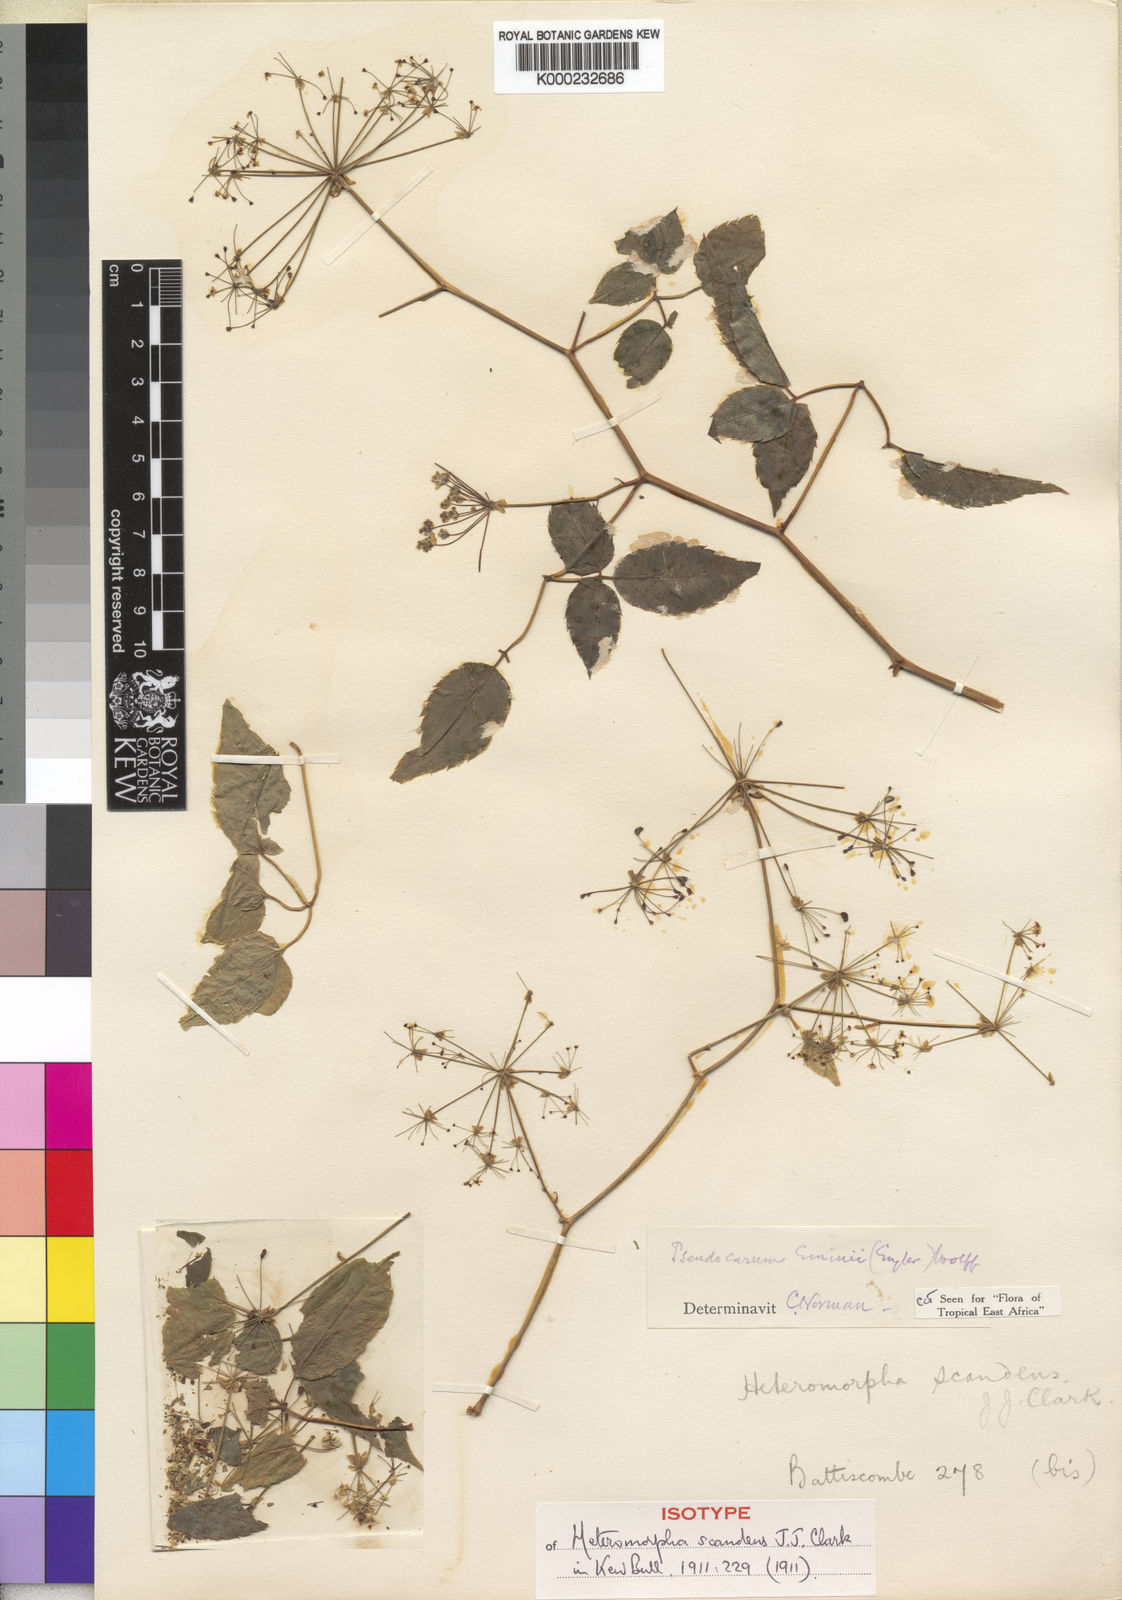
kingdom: Plantae
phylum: Tracheophyta
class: Magnoliopsida
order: Apiales
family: Apiaceae
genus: Pseudocarum
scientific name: Pseudocarum eminii
